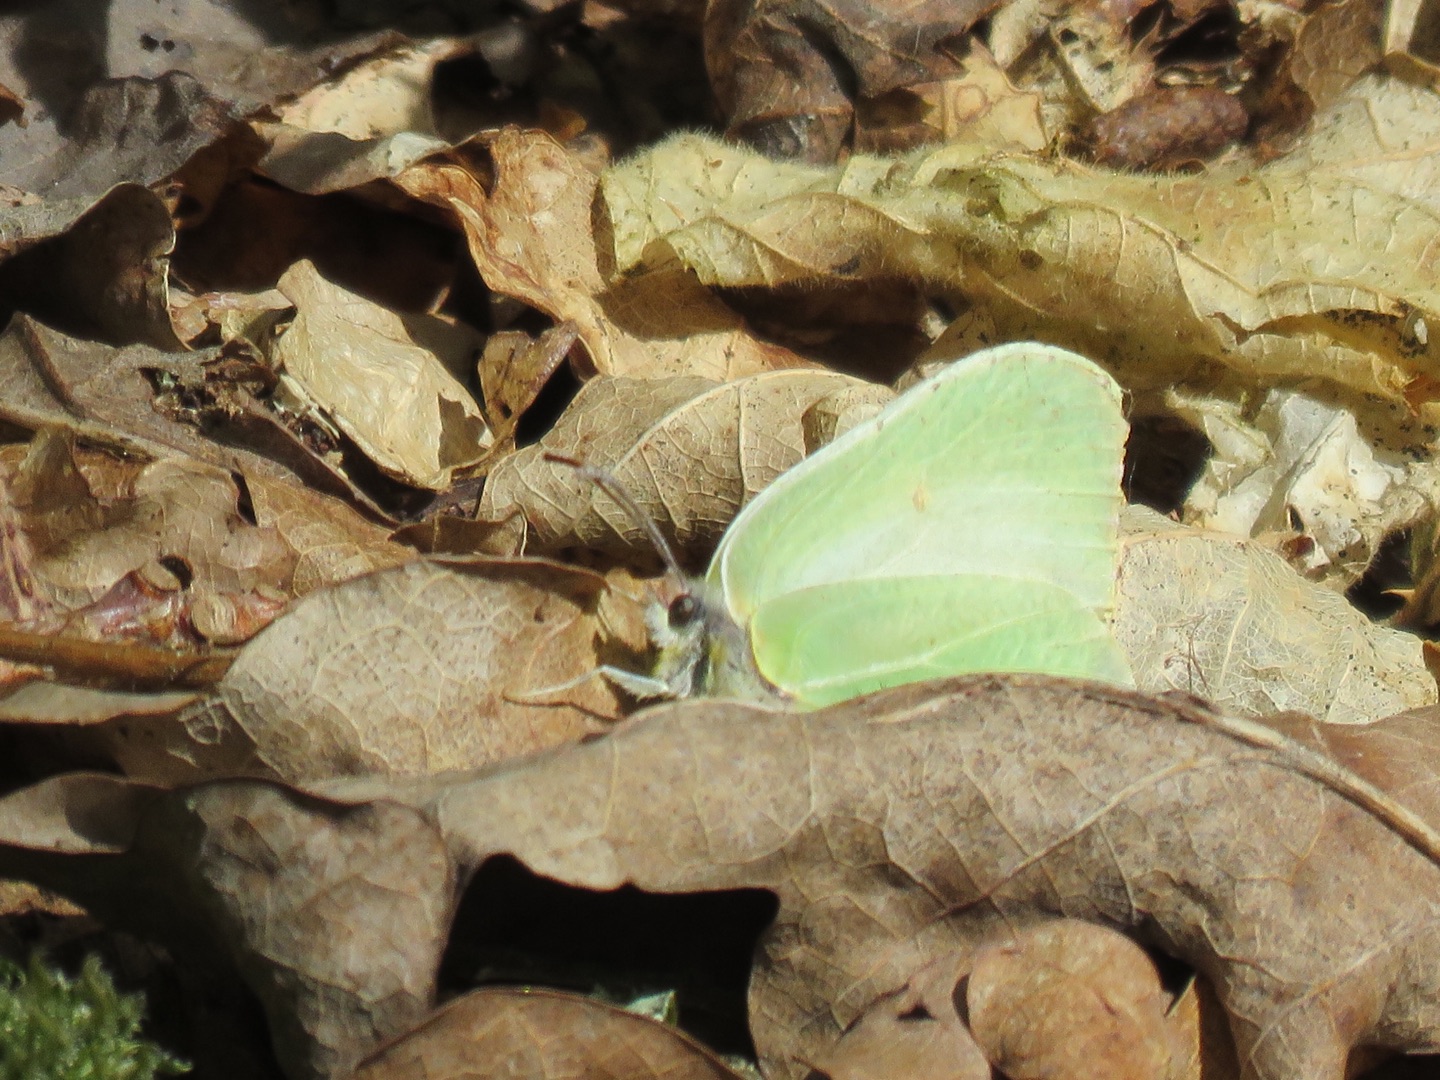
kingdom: Animalia
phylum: Arthropoda
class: Insecta
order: Lepidoptera
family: Pieridae
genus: Gonepteryx
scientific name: Gonepteryx rhamni
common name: Citronsommerfugl
